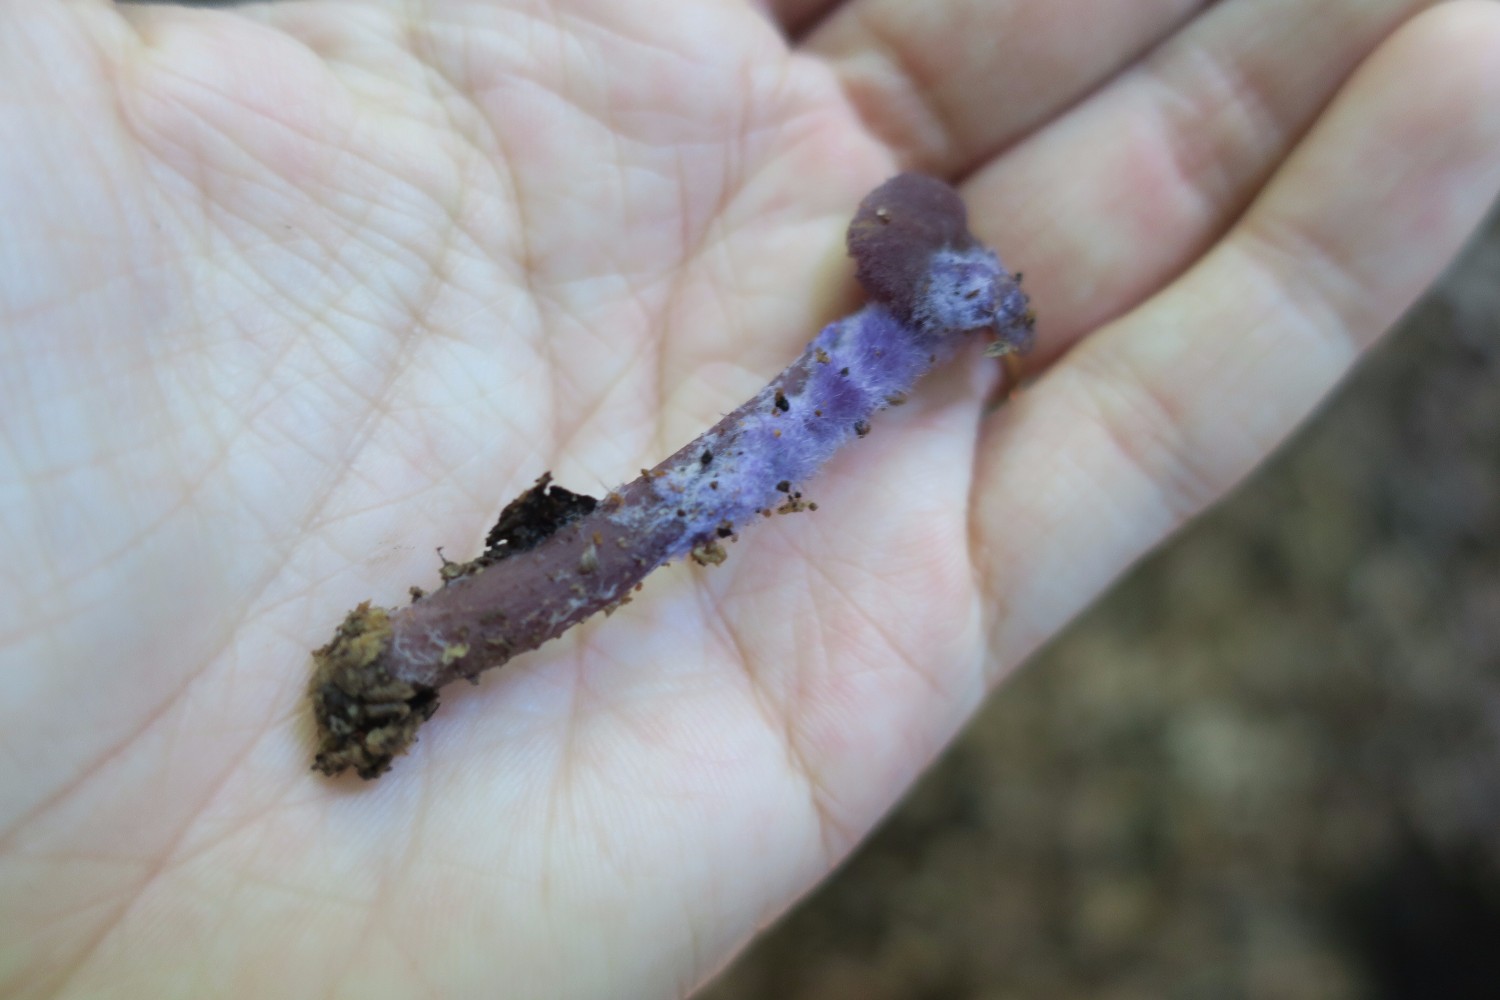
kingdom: Fungi
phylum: Basidiomycota
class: Agaricomycetes
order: Agaricales
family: Hydnangiaceae
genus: Laccaria
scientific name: Laccaria amethystina
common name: violet ametysthat
